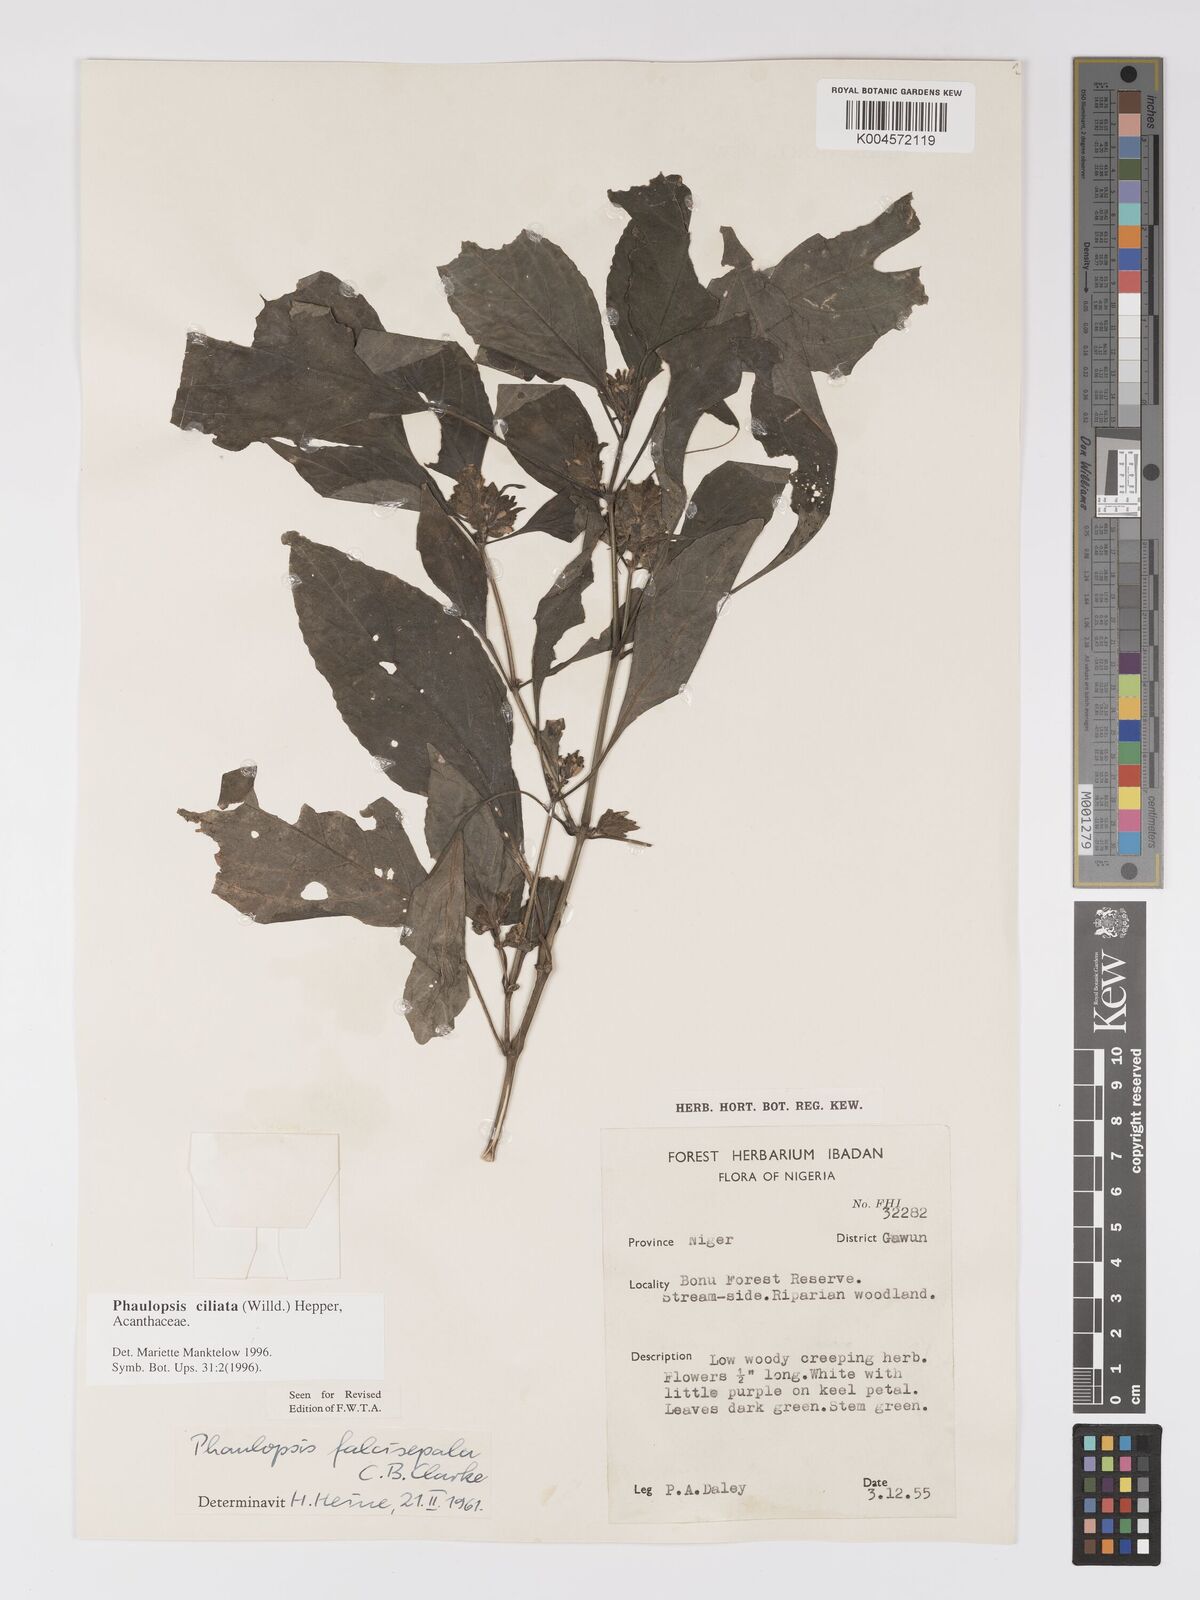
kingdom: Plantae
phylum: Tracheophyta
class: Magnoliopsida
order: Lamiales
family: Acanthaceae
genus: Phaulopsis
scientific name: Phaulopsis ciliata
